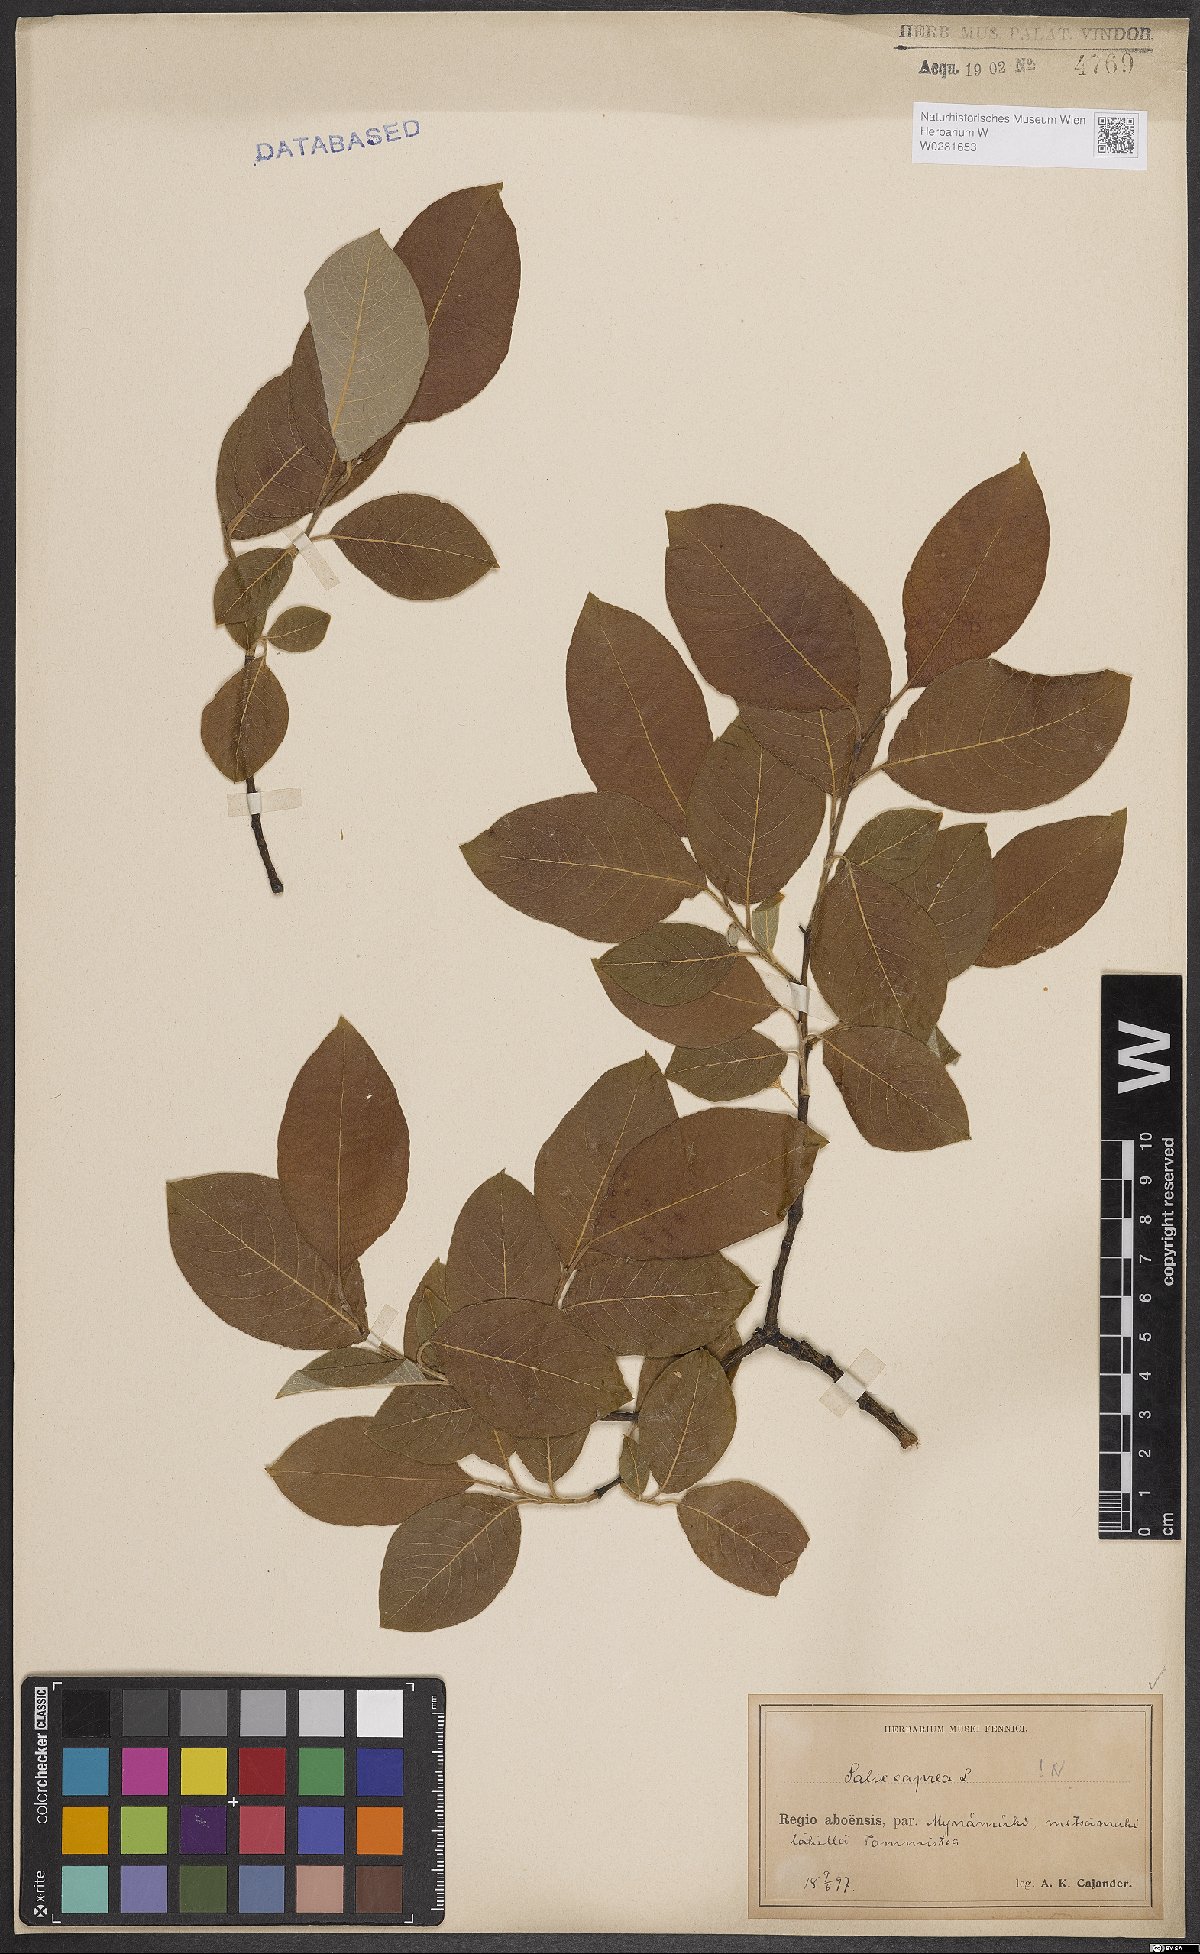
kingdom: Plantae
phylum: Tracheophyta
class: Magnoliopsida
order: Malpighiales
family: Salicaceae
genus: Salix
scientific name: Salix caprea
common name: Goat willow
